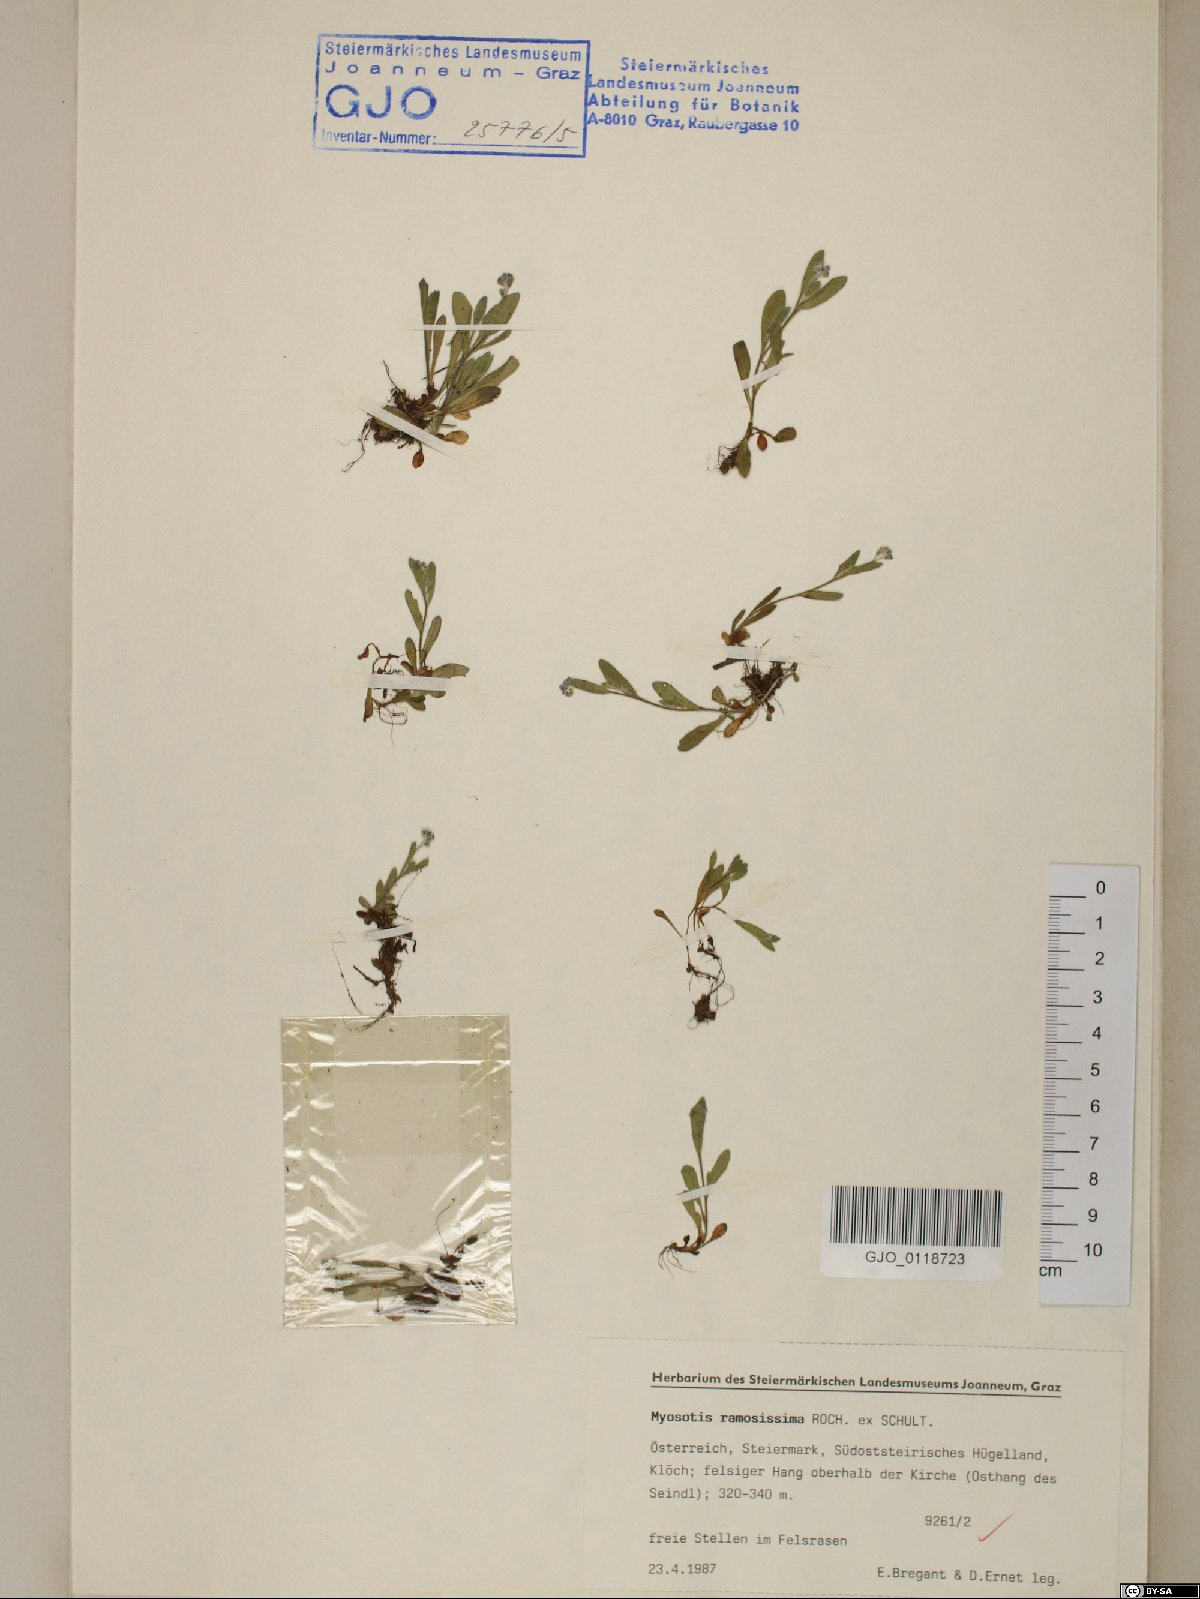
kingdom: Plantae
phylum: Tracheophyta
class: Magnoliopsida
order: Boraginales
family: Boraginaceae
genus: Myosotis
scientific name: Myosotis ramosissima
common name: Early forget-me-not
